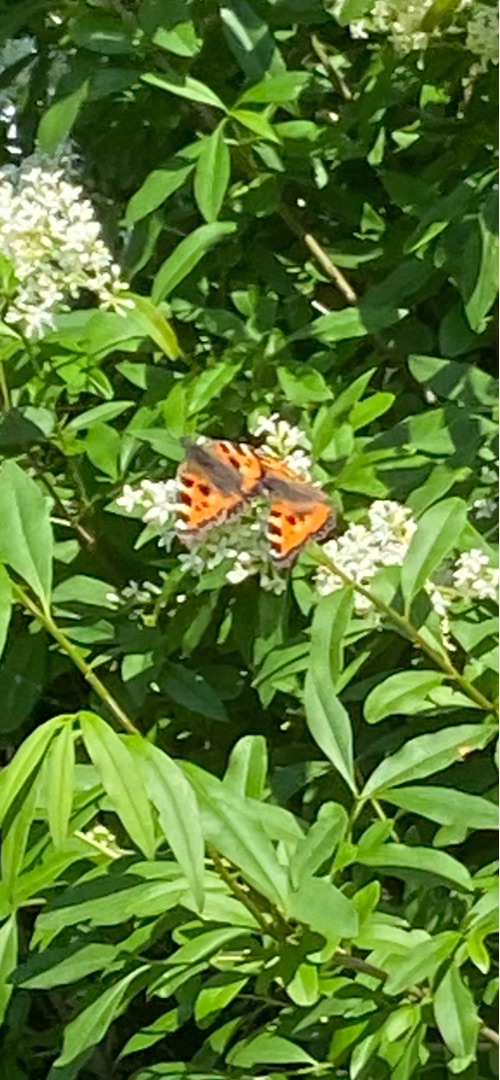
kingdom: Animalia
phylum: Arthropoda
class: Insecta
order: Lepidoptera
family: Nymphalidae
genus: Aglais
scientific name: Aglais urticae
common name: Nældens takvinge
